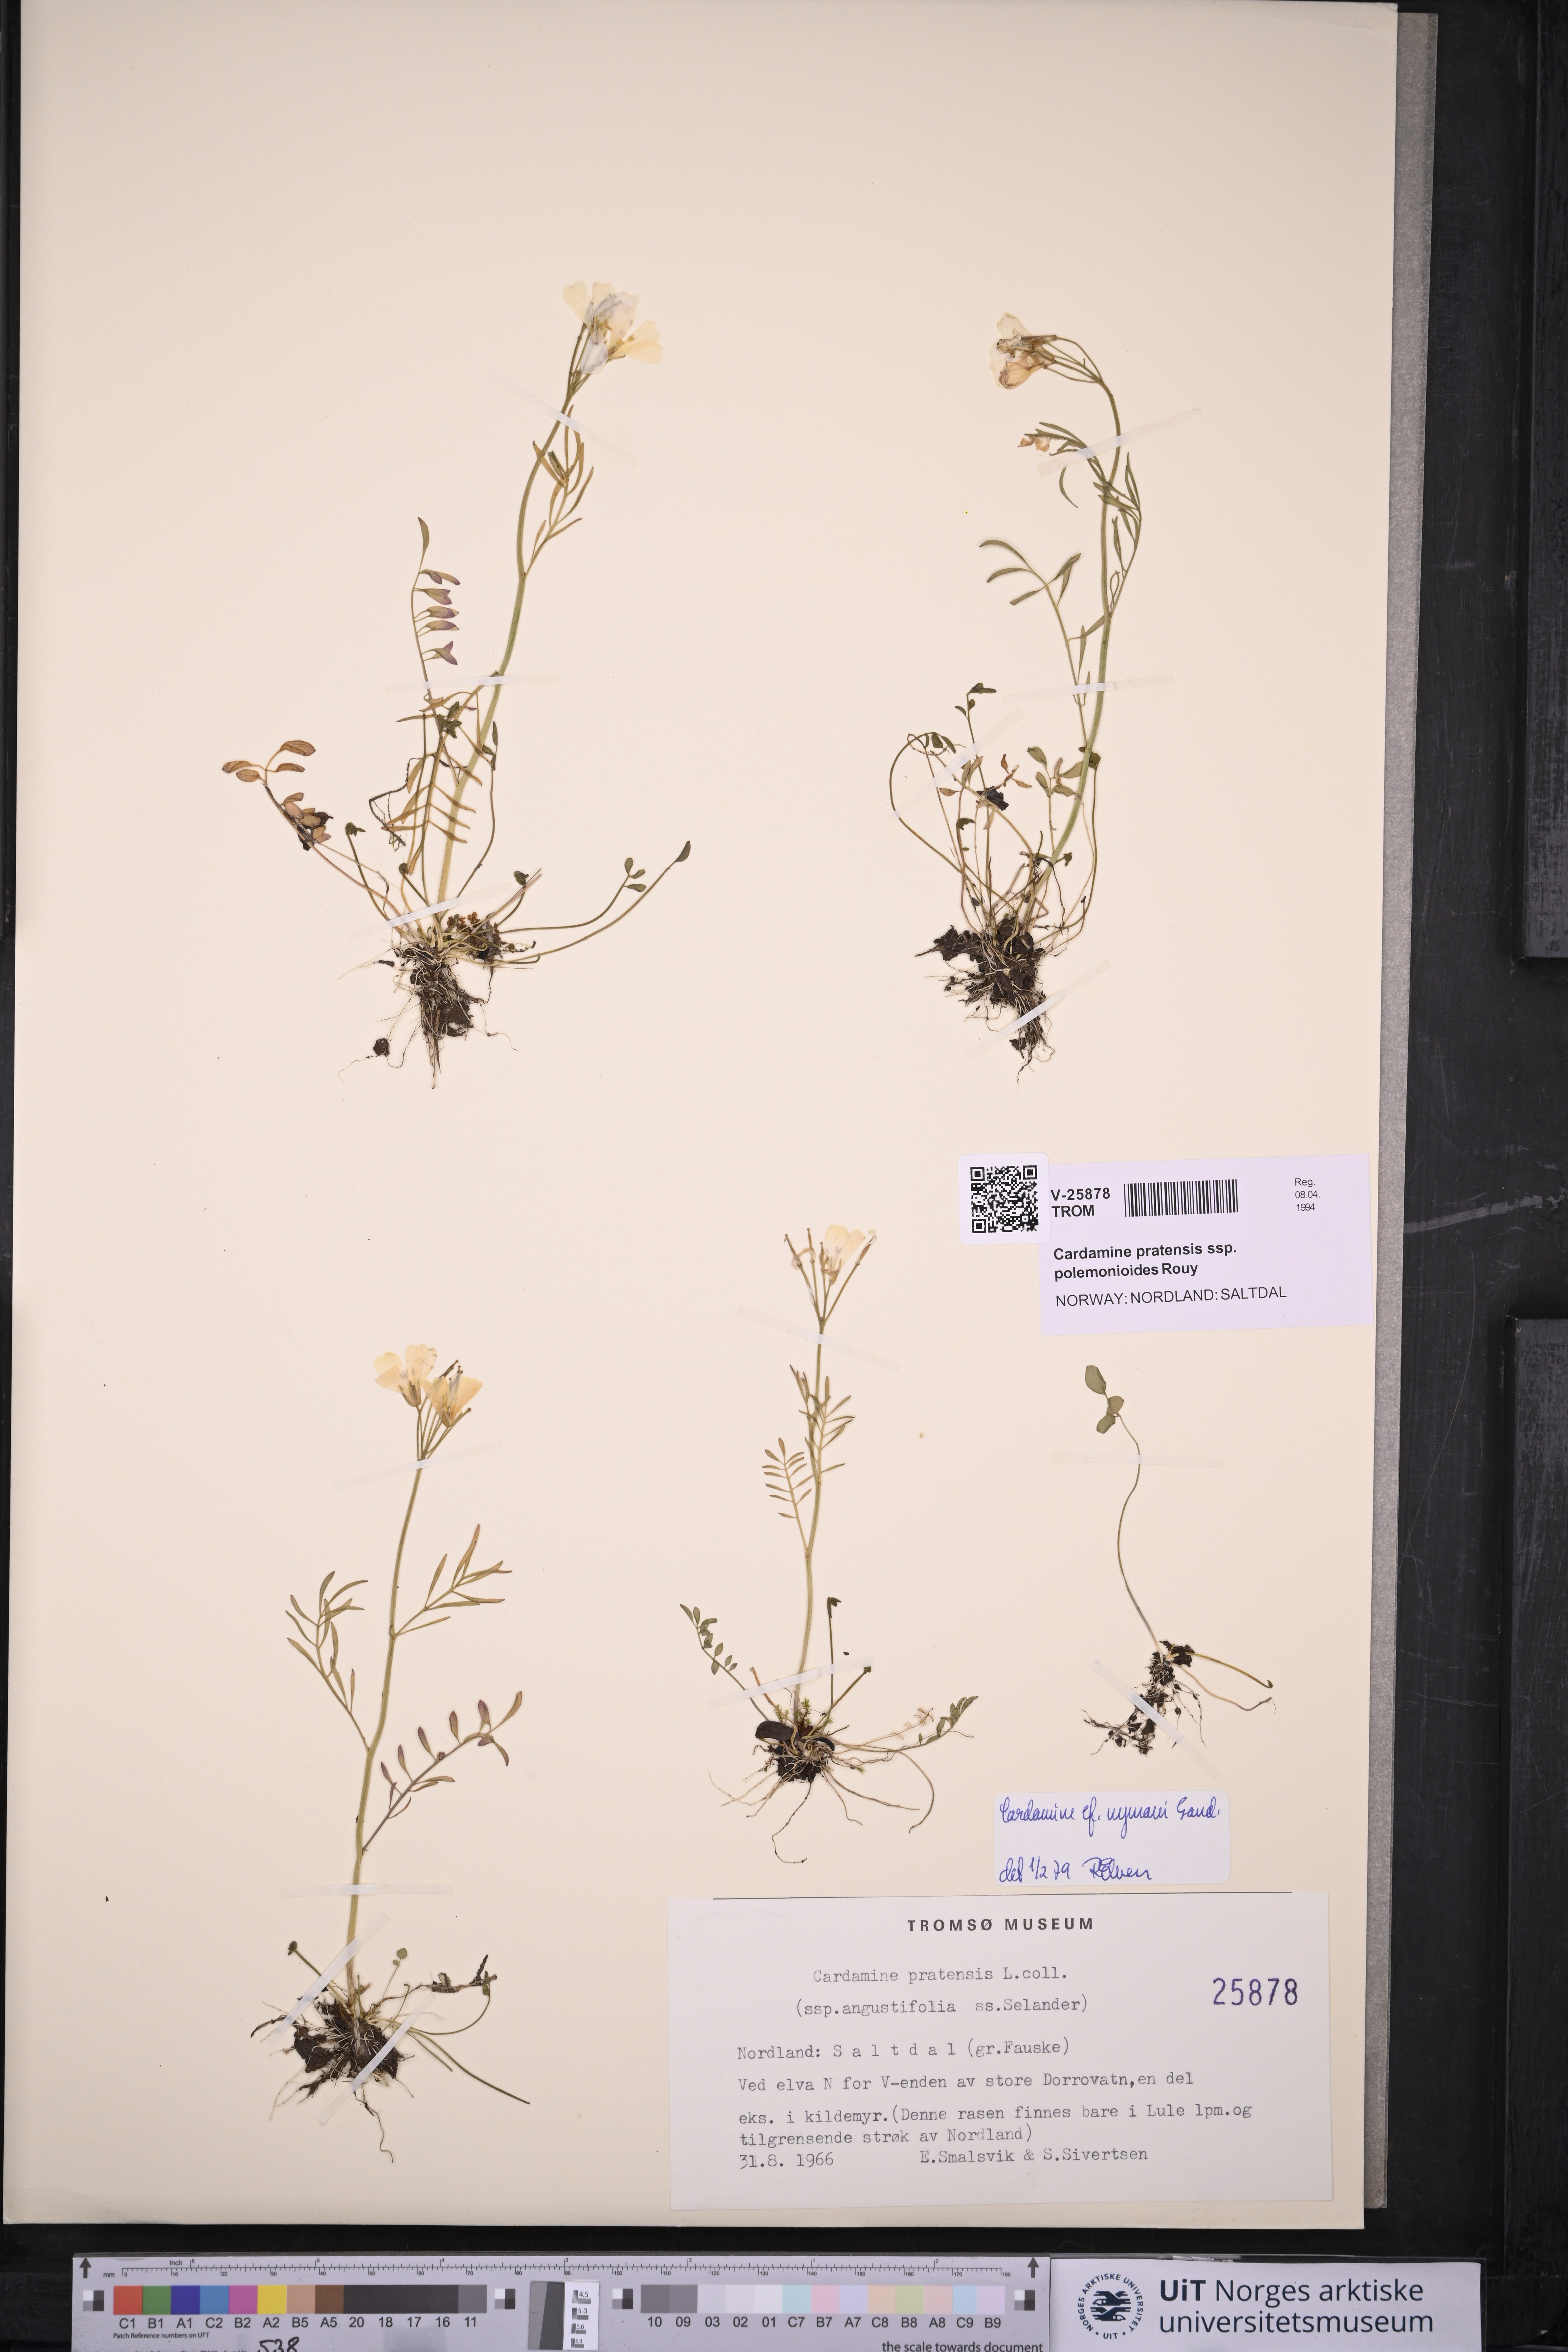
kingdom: Plantae
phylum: Tracheophyta
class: Magnoliopsida
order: Brassicales
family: Brassicaceae
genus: Cardamine
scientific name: Cardamine nymanii
